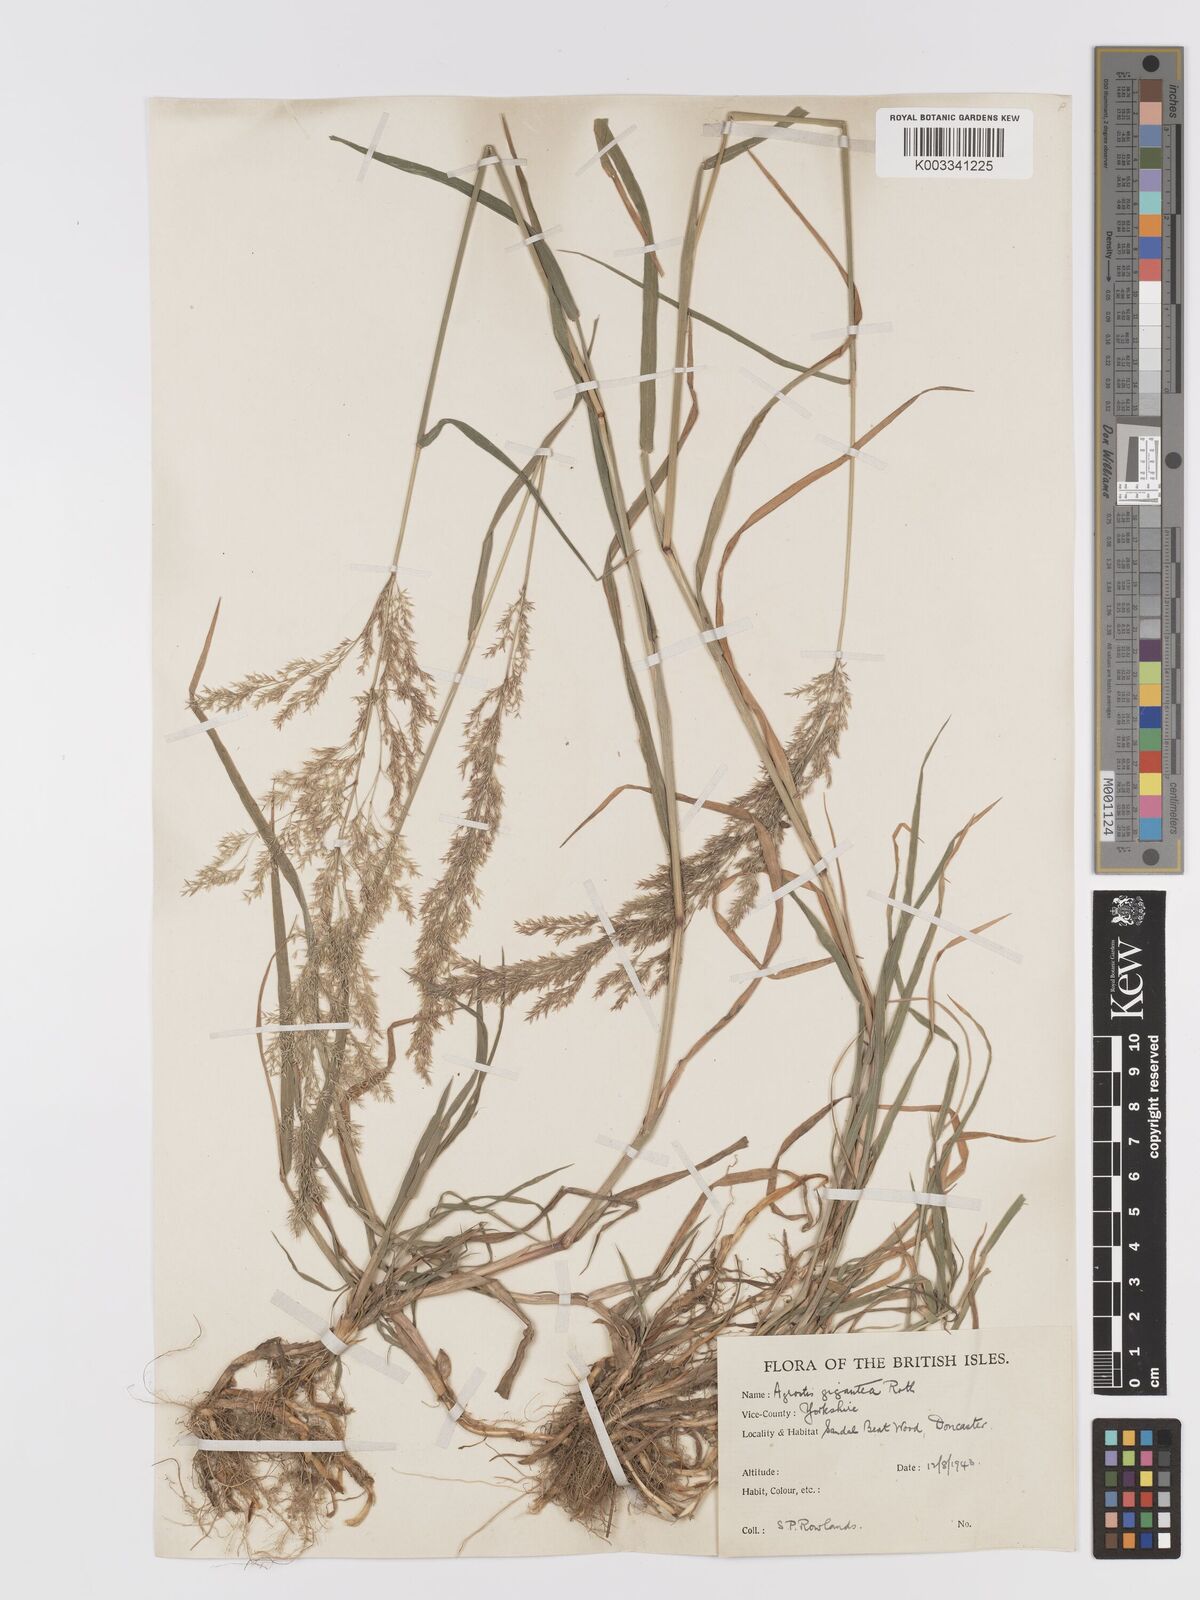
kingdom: Plantae
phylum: Tracheophyta
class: Liliopsida
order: Poales
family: Poaceae
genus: Agrostis
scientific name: Agrostis gigantea
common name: Black bent
